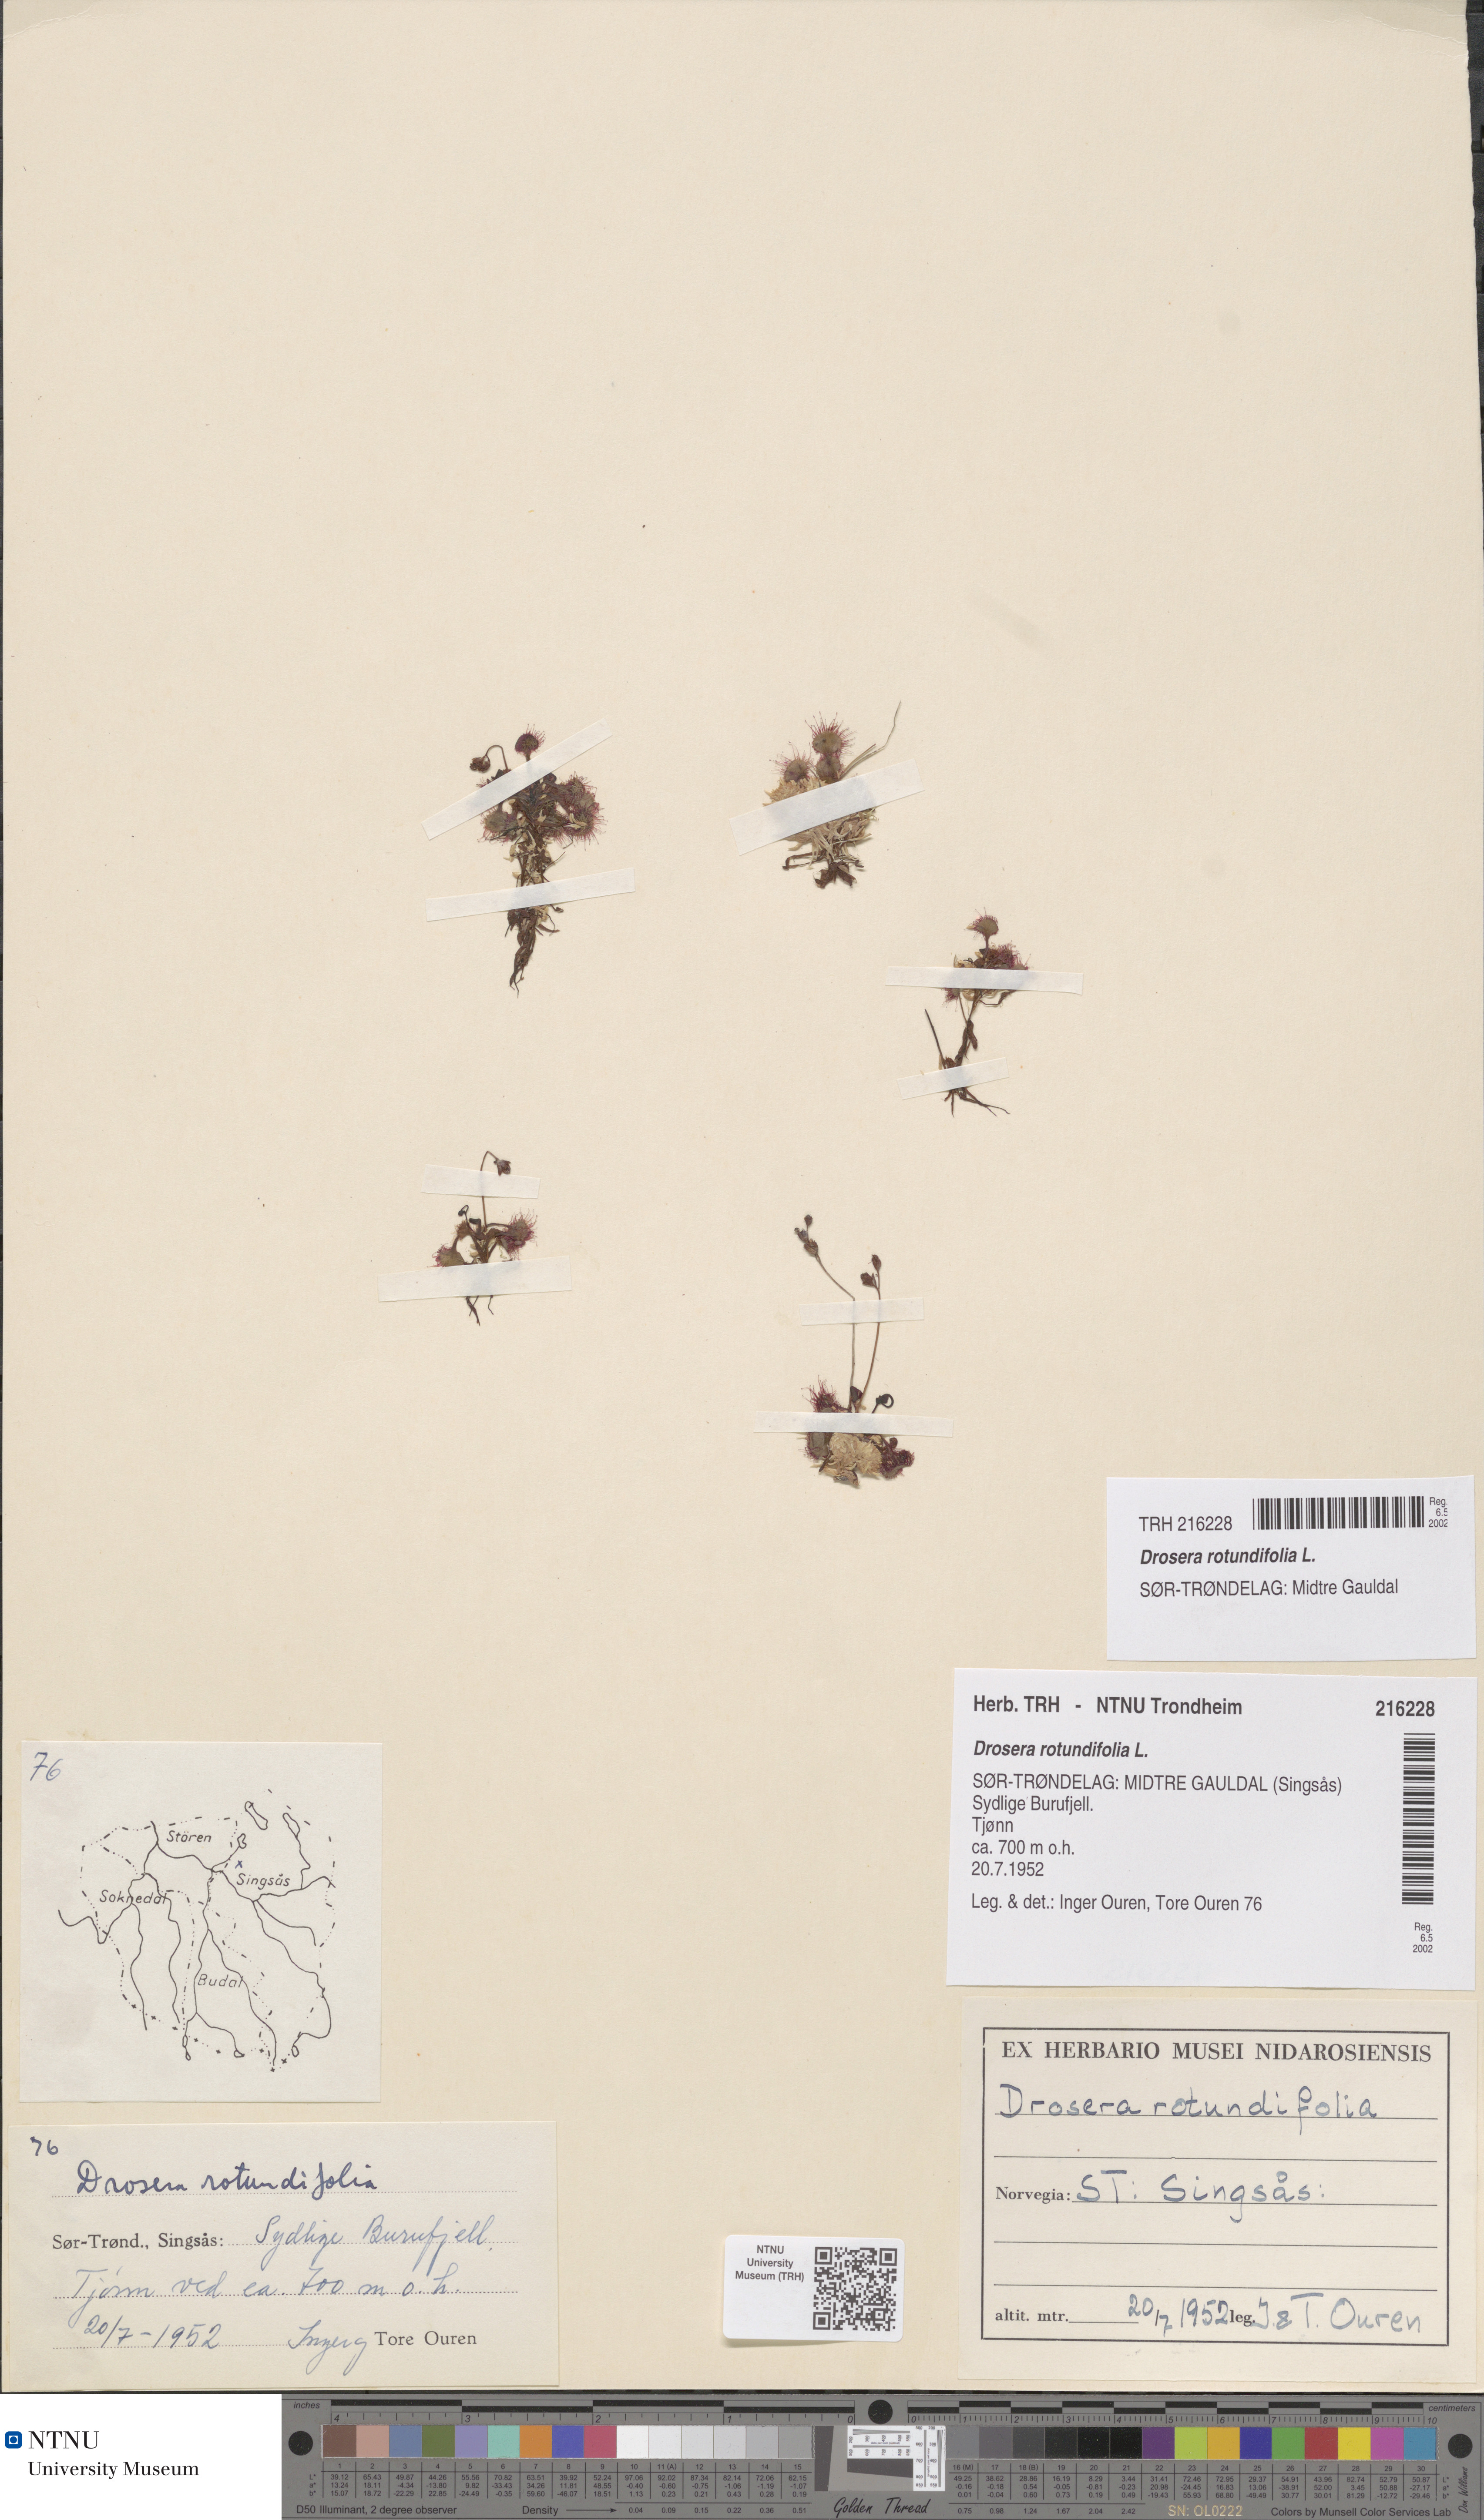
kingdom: Plantae
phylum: Tracheophyta
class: Magnoliopsida
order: Caryophyllales
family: Droseraceae
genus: Drosera
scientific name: Drosera rotundifolia
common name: Round-leaved sundew
